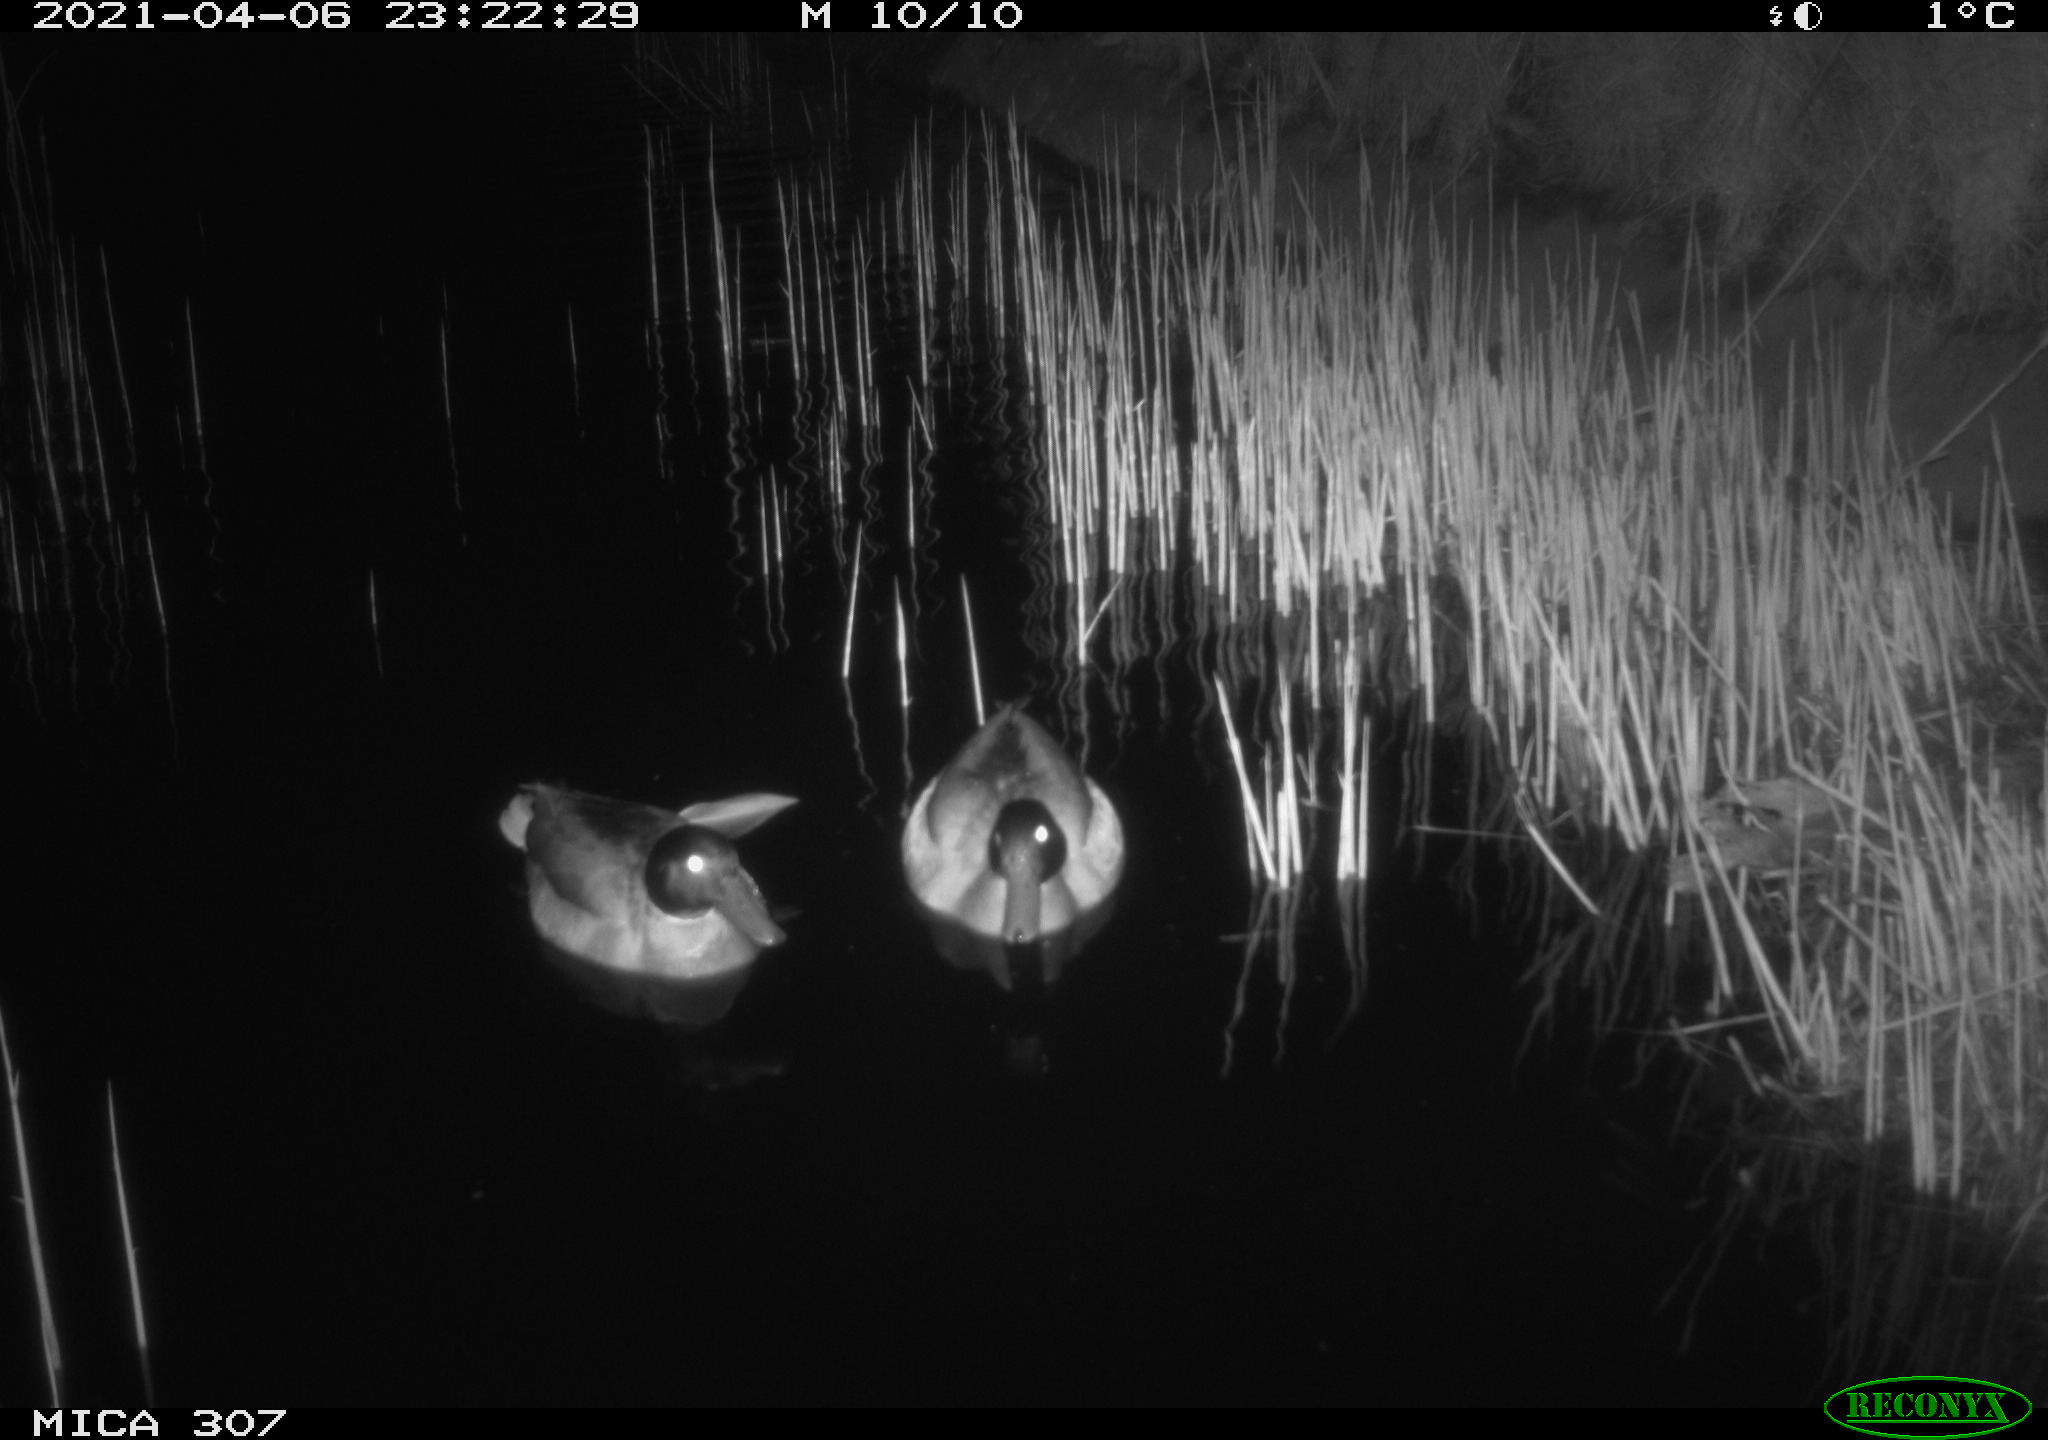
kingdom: Animalia
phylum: Chordata
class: Aves
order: Anseriformes
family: Anatidae
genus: Anas
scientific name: Anas platyrhynchos
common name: Mallard
